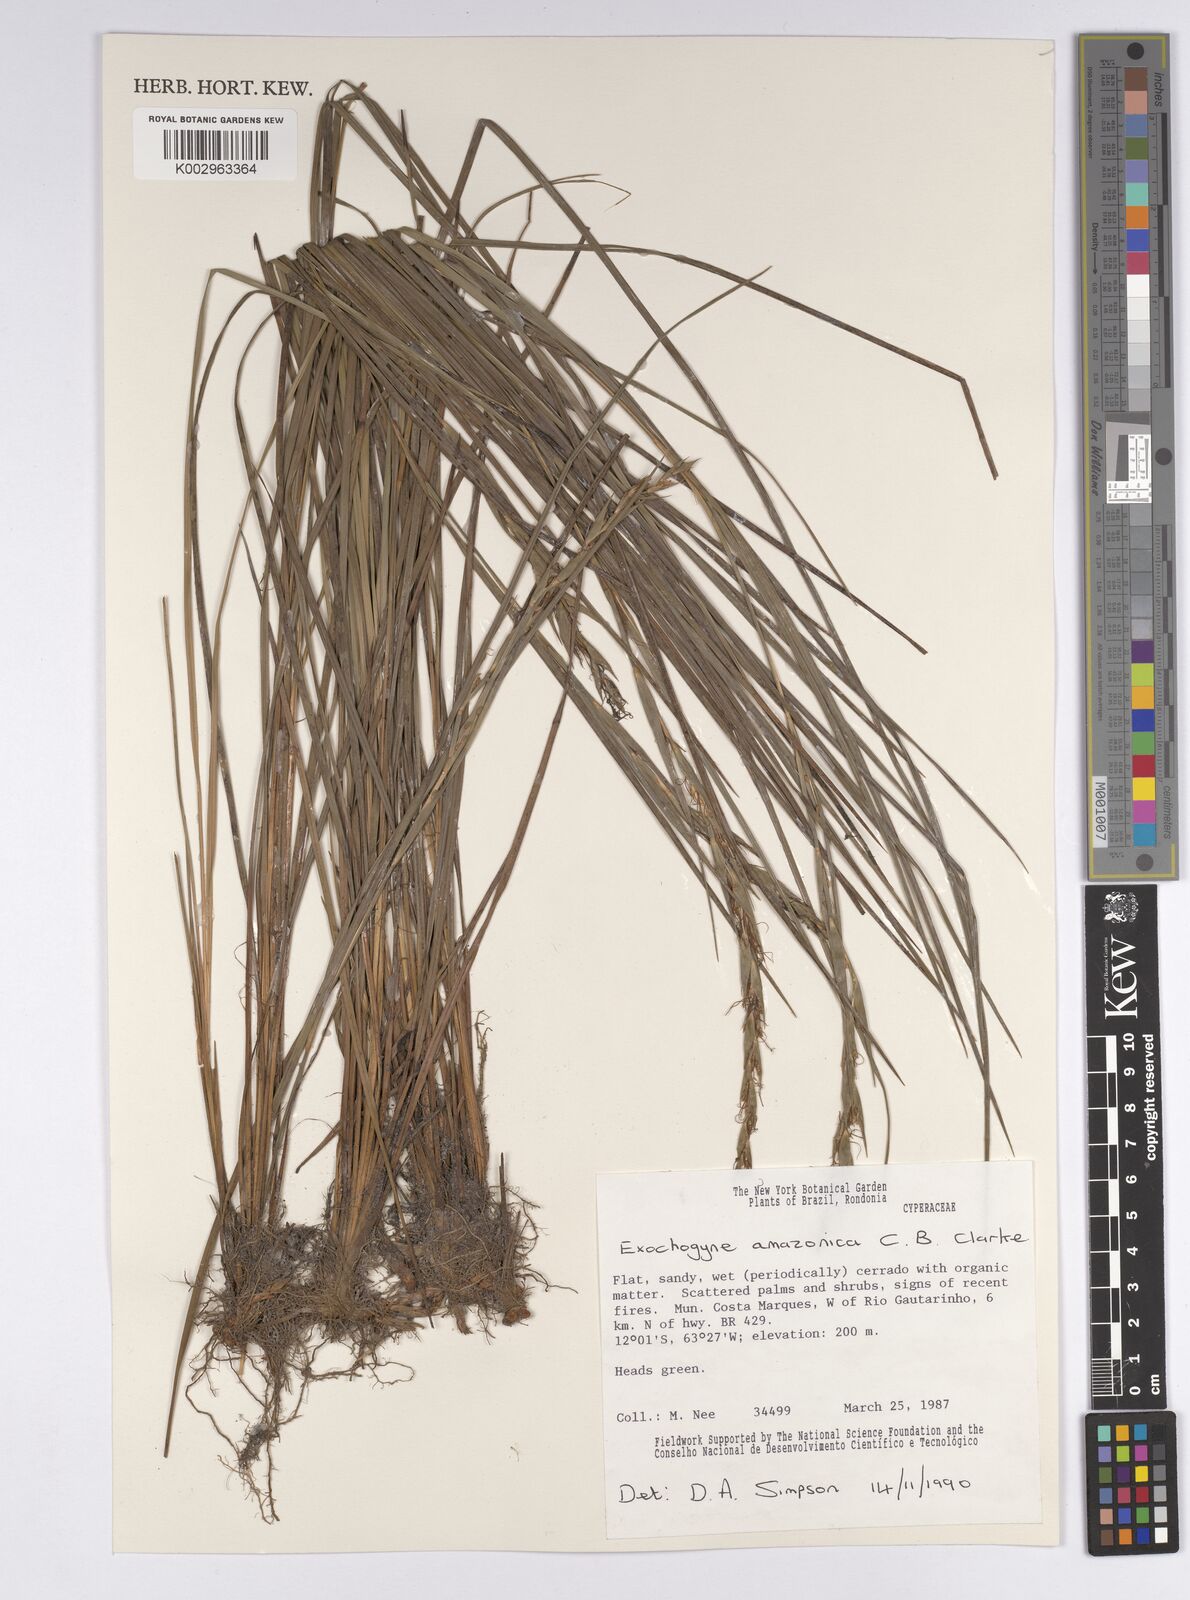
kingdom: Plantae
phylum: Tracheophyta
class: Liliopsida
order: Poales
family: Cyperaceae
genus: Exochogyne
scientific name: Exochogyne amazonica
